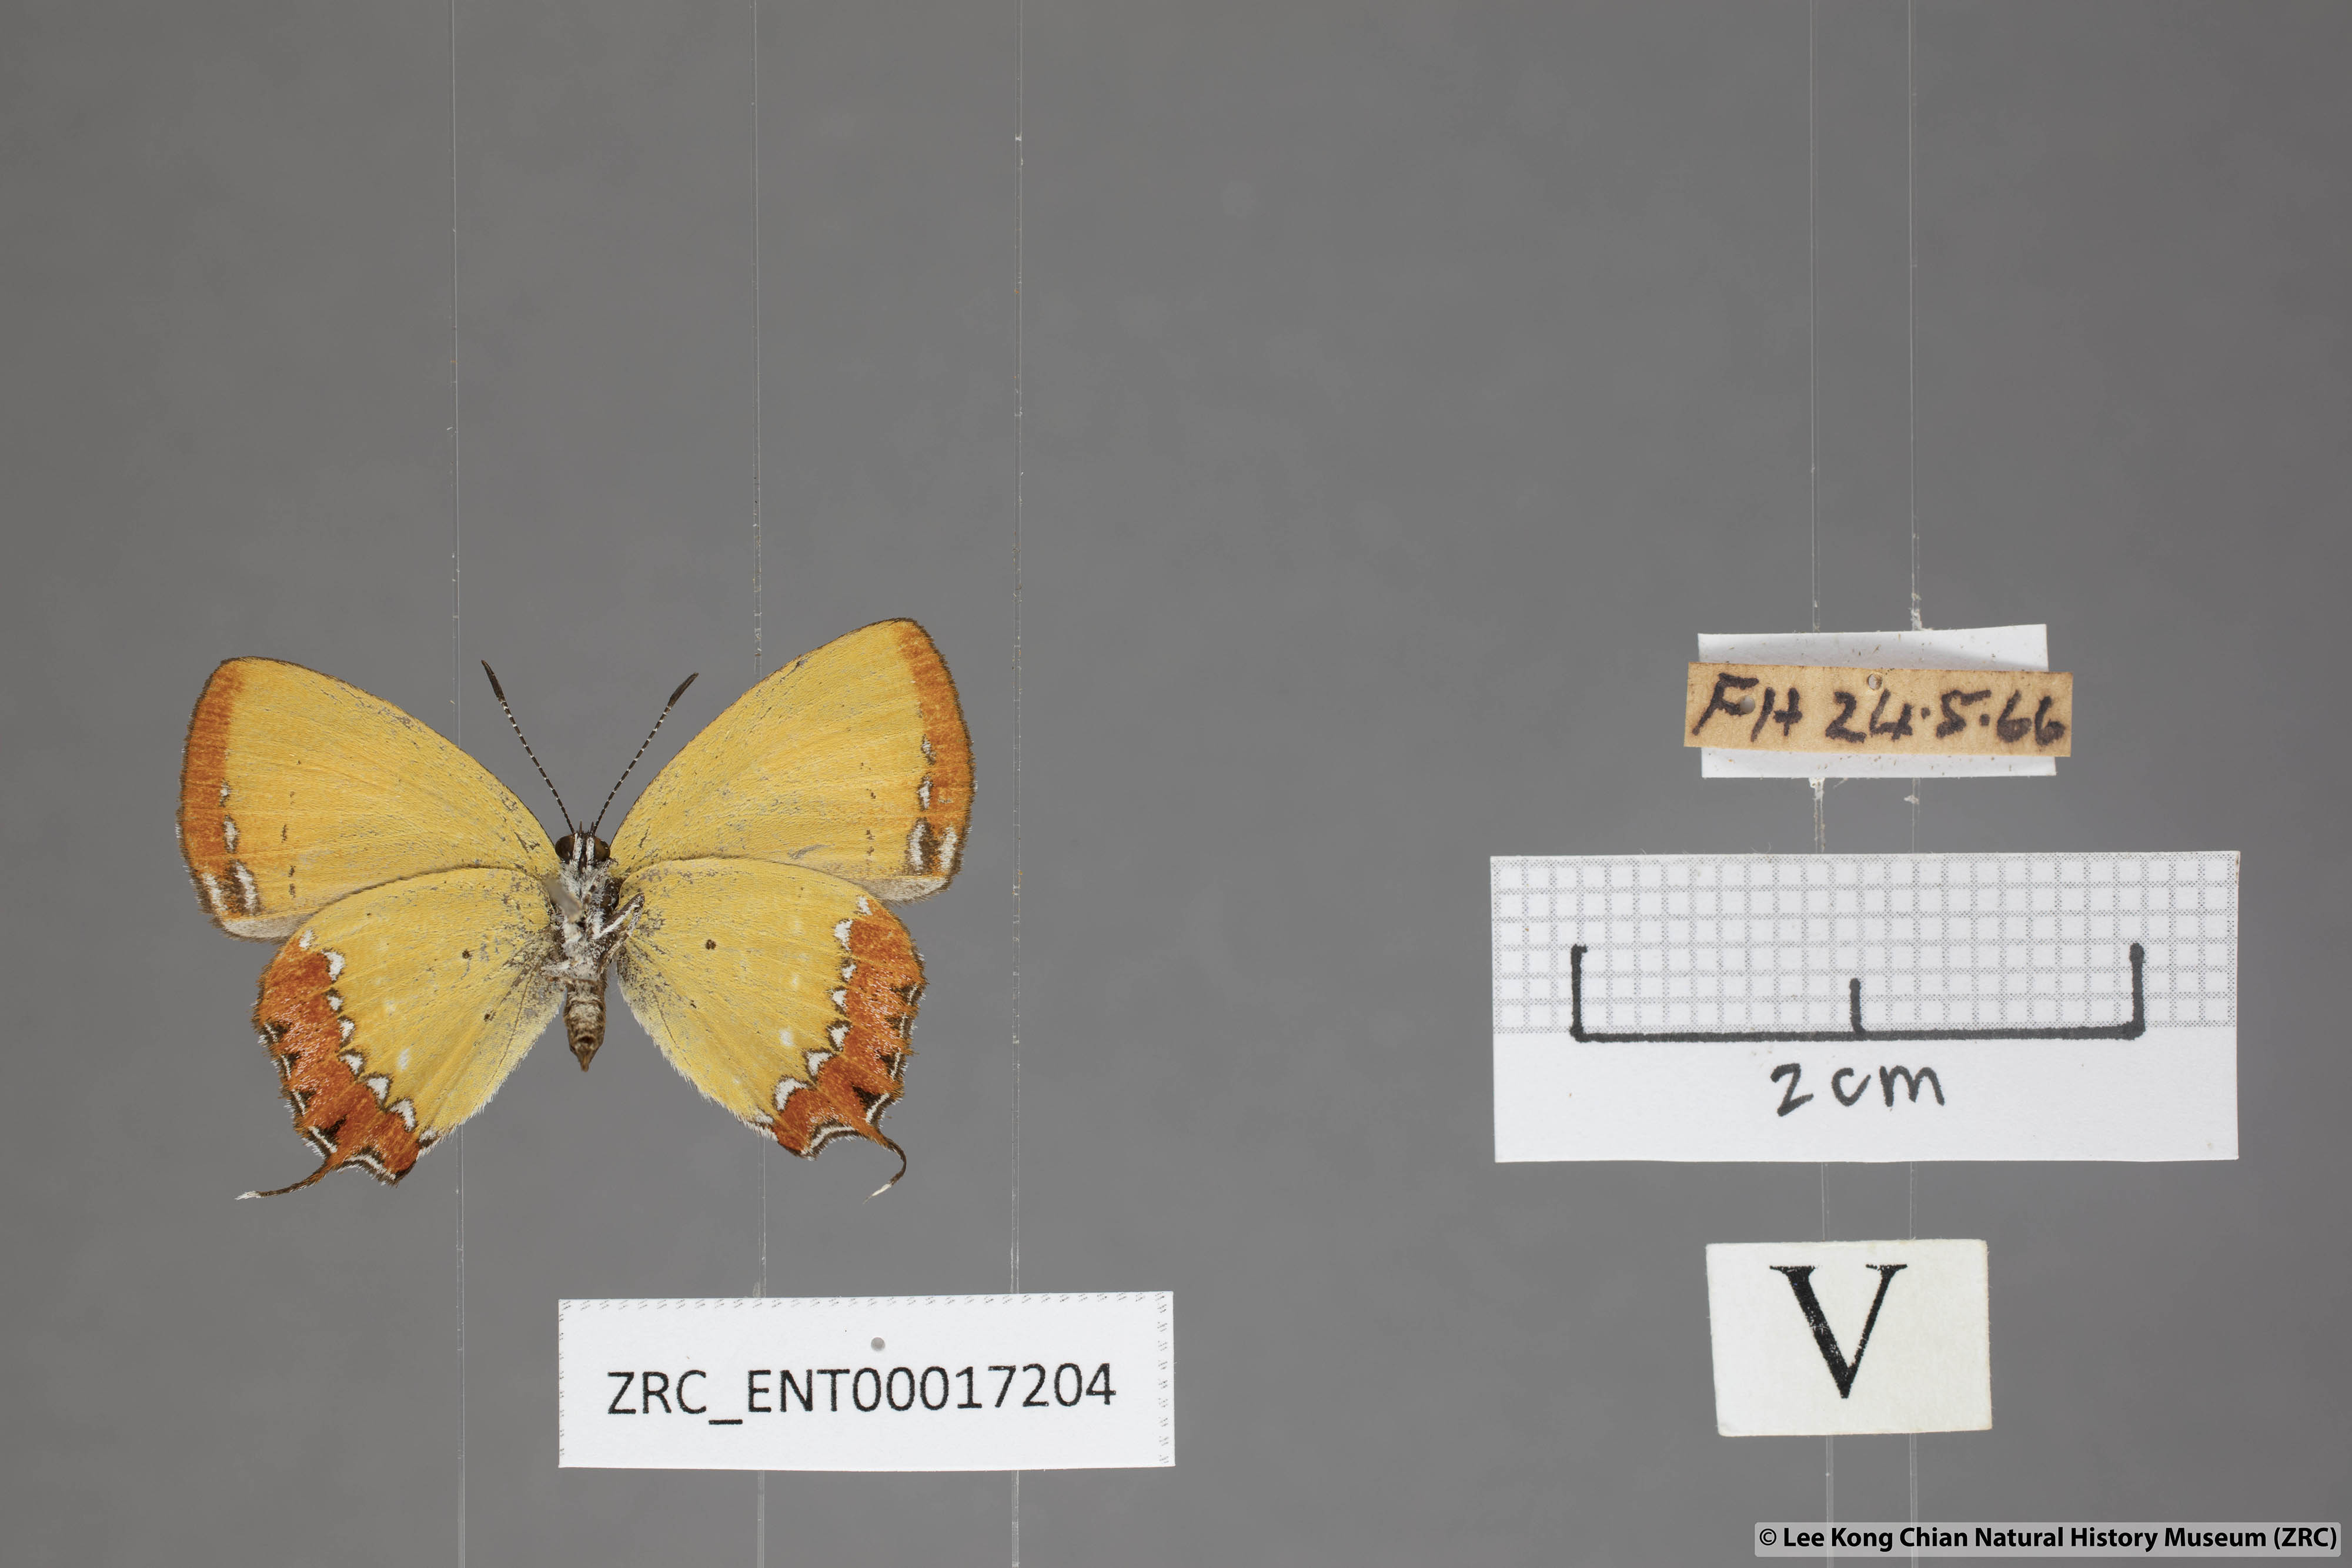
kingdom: Animalia
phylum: Arthropoda
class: Insecta
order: Lepidoptera
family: Lycaenidae
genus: Heliophorus
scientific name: Heliophorus epicles
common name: Purple sapphire
